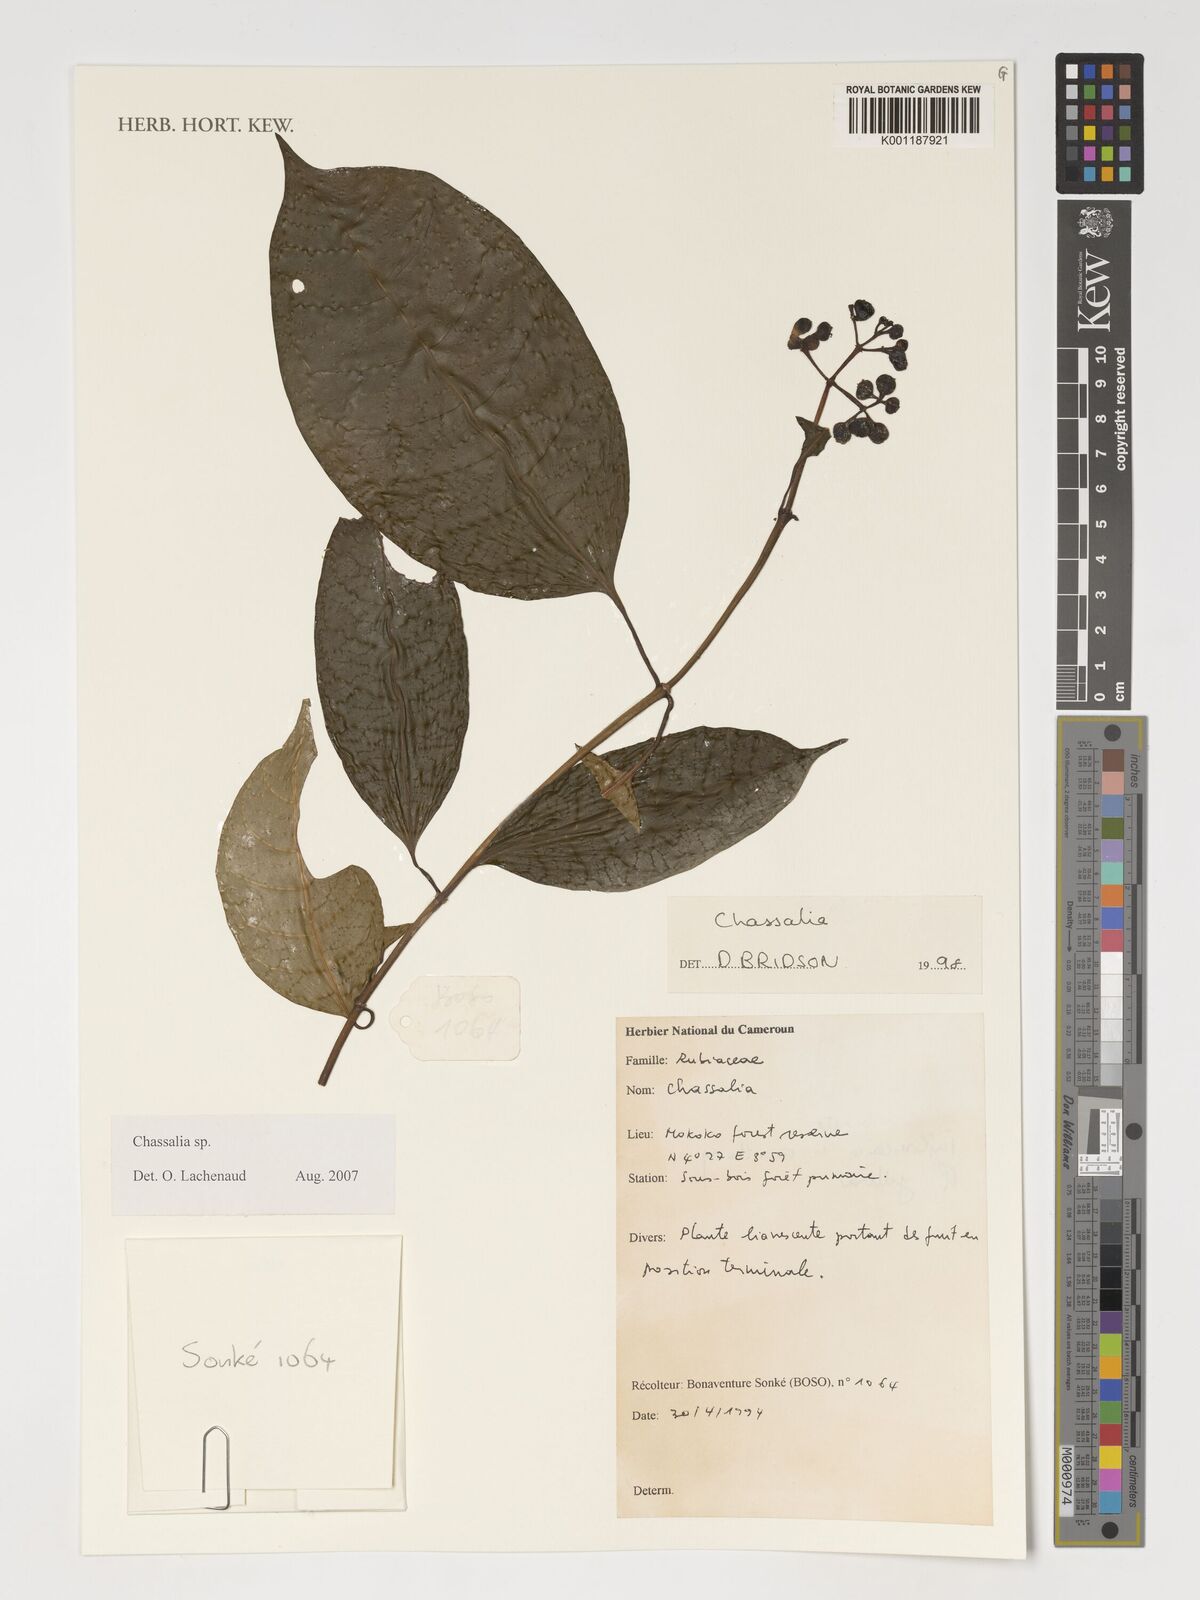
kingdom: Plantae
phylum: Tracheophyta
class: Magnoliopsida
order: Gentianales
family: Rubiaceae
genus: Chassalia
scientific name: Chassalia
